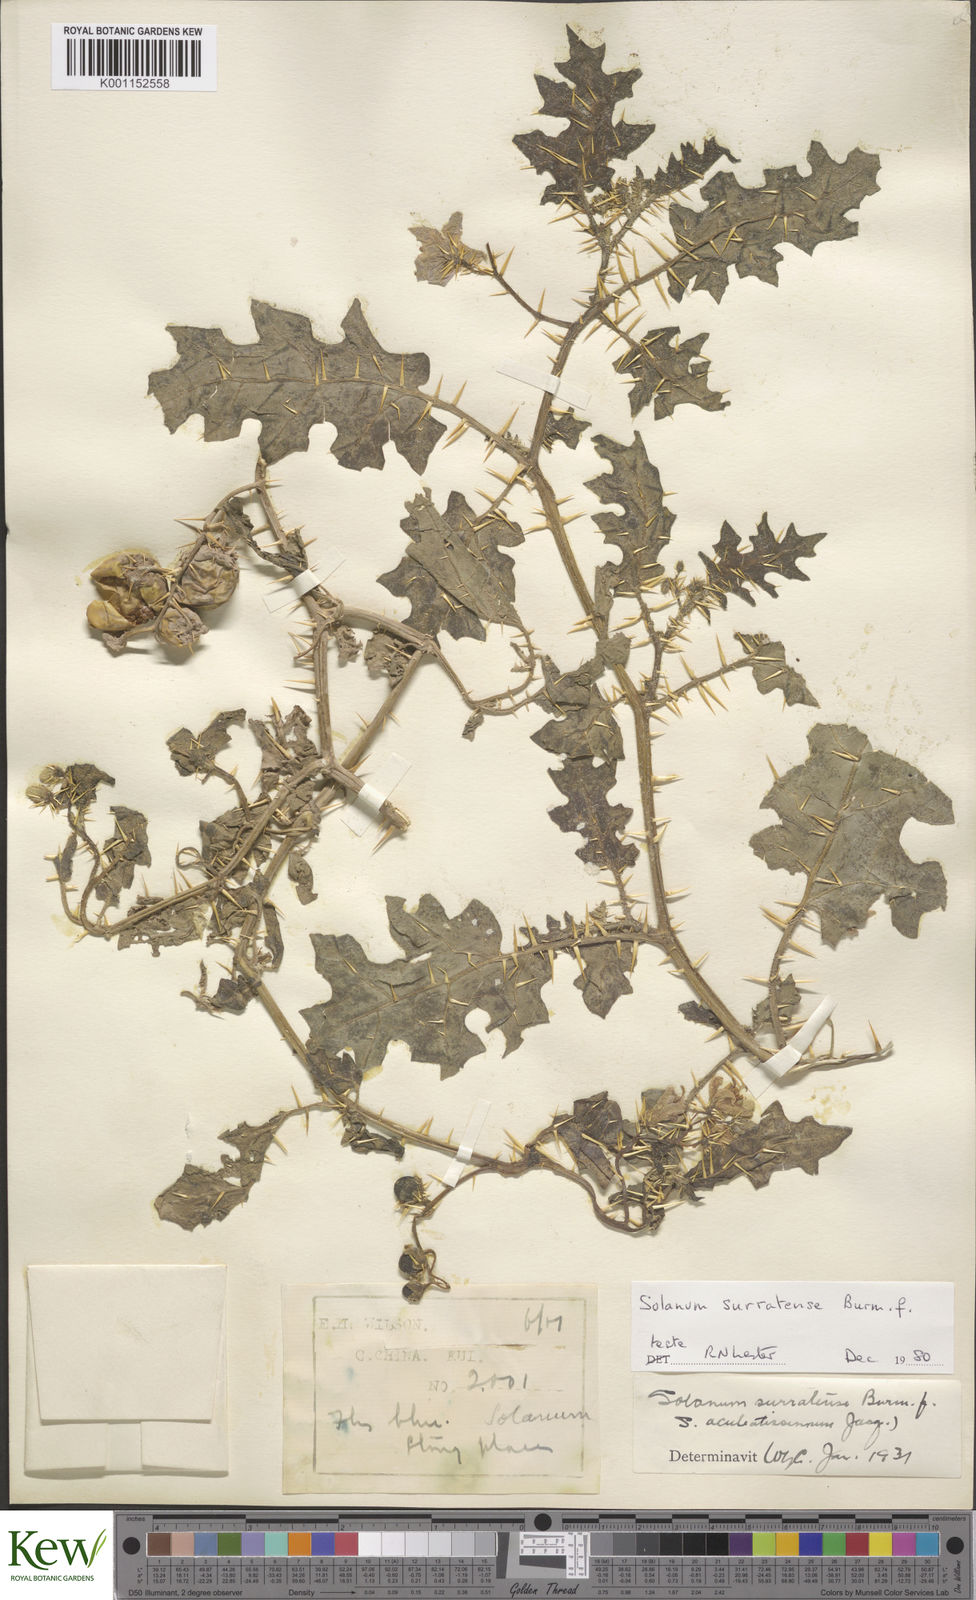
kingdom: Plantae
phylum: Tracheophyta
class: Magnoliopsida
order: Solanales
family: Solanaceae
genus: Solanum
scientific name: Solanum virginianum
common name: Surattense nightshade
